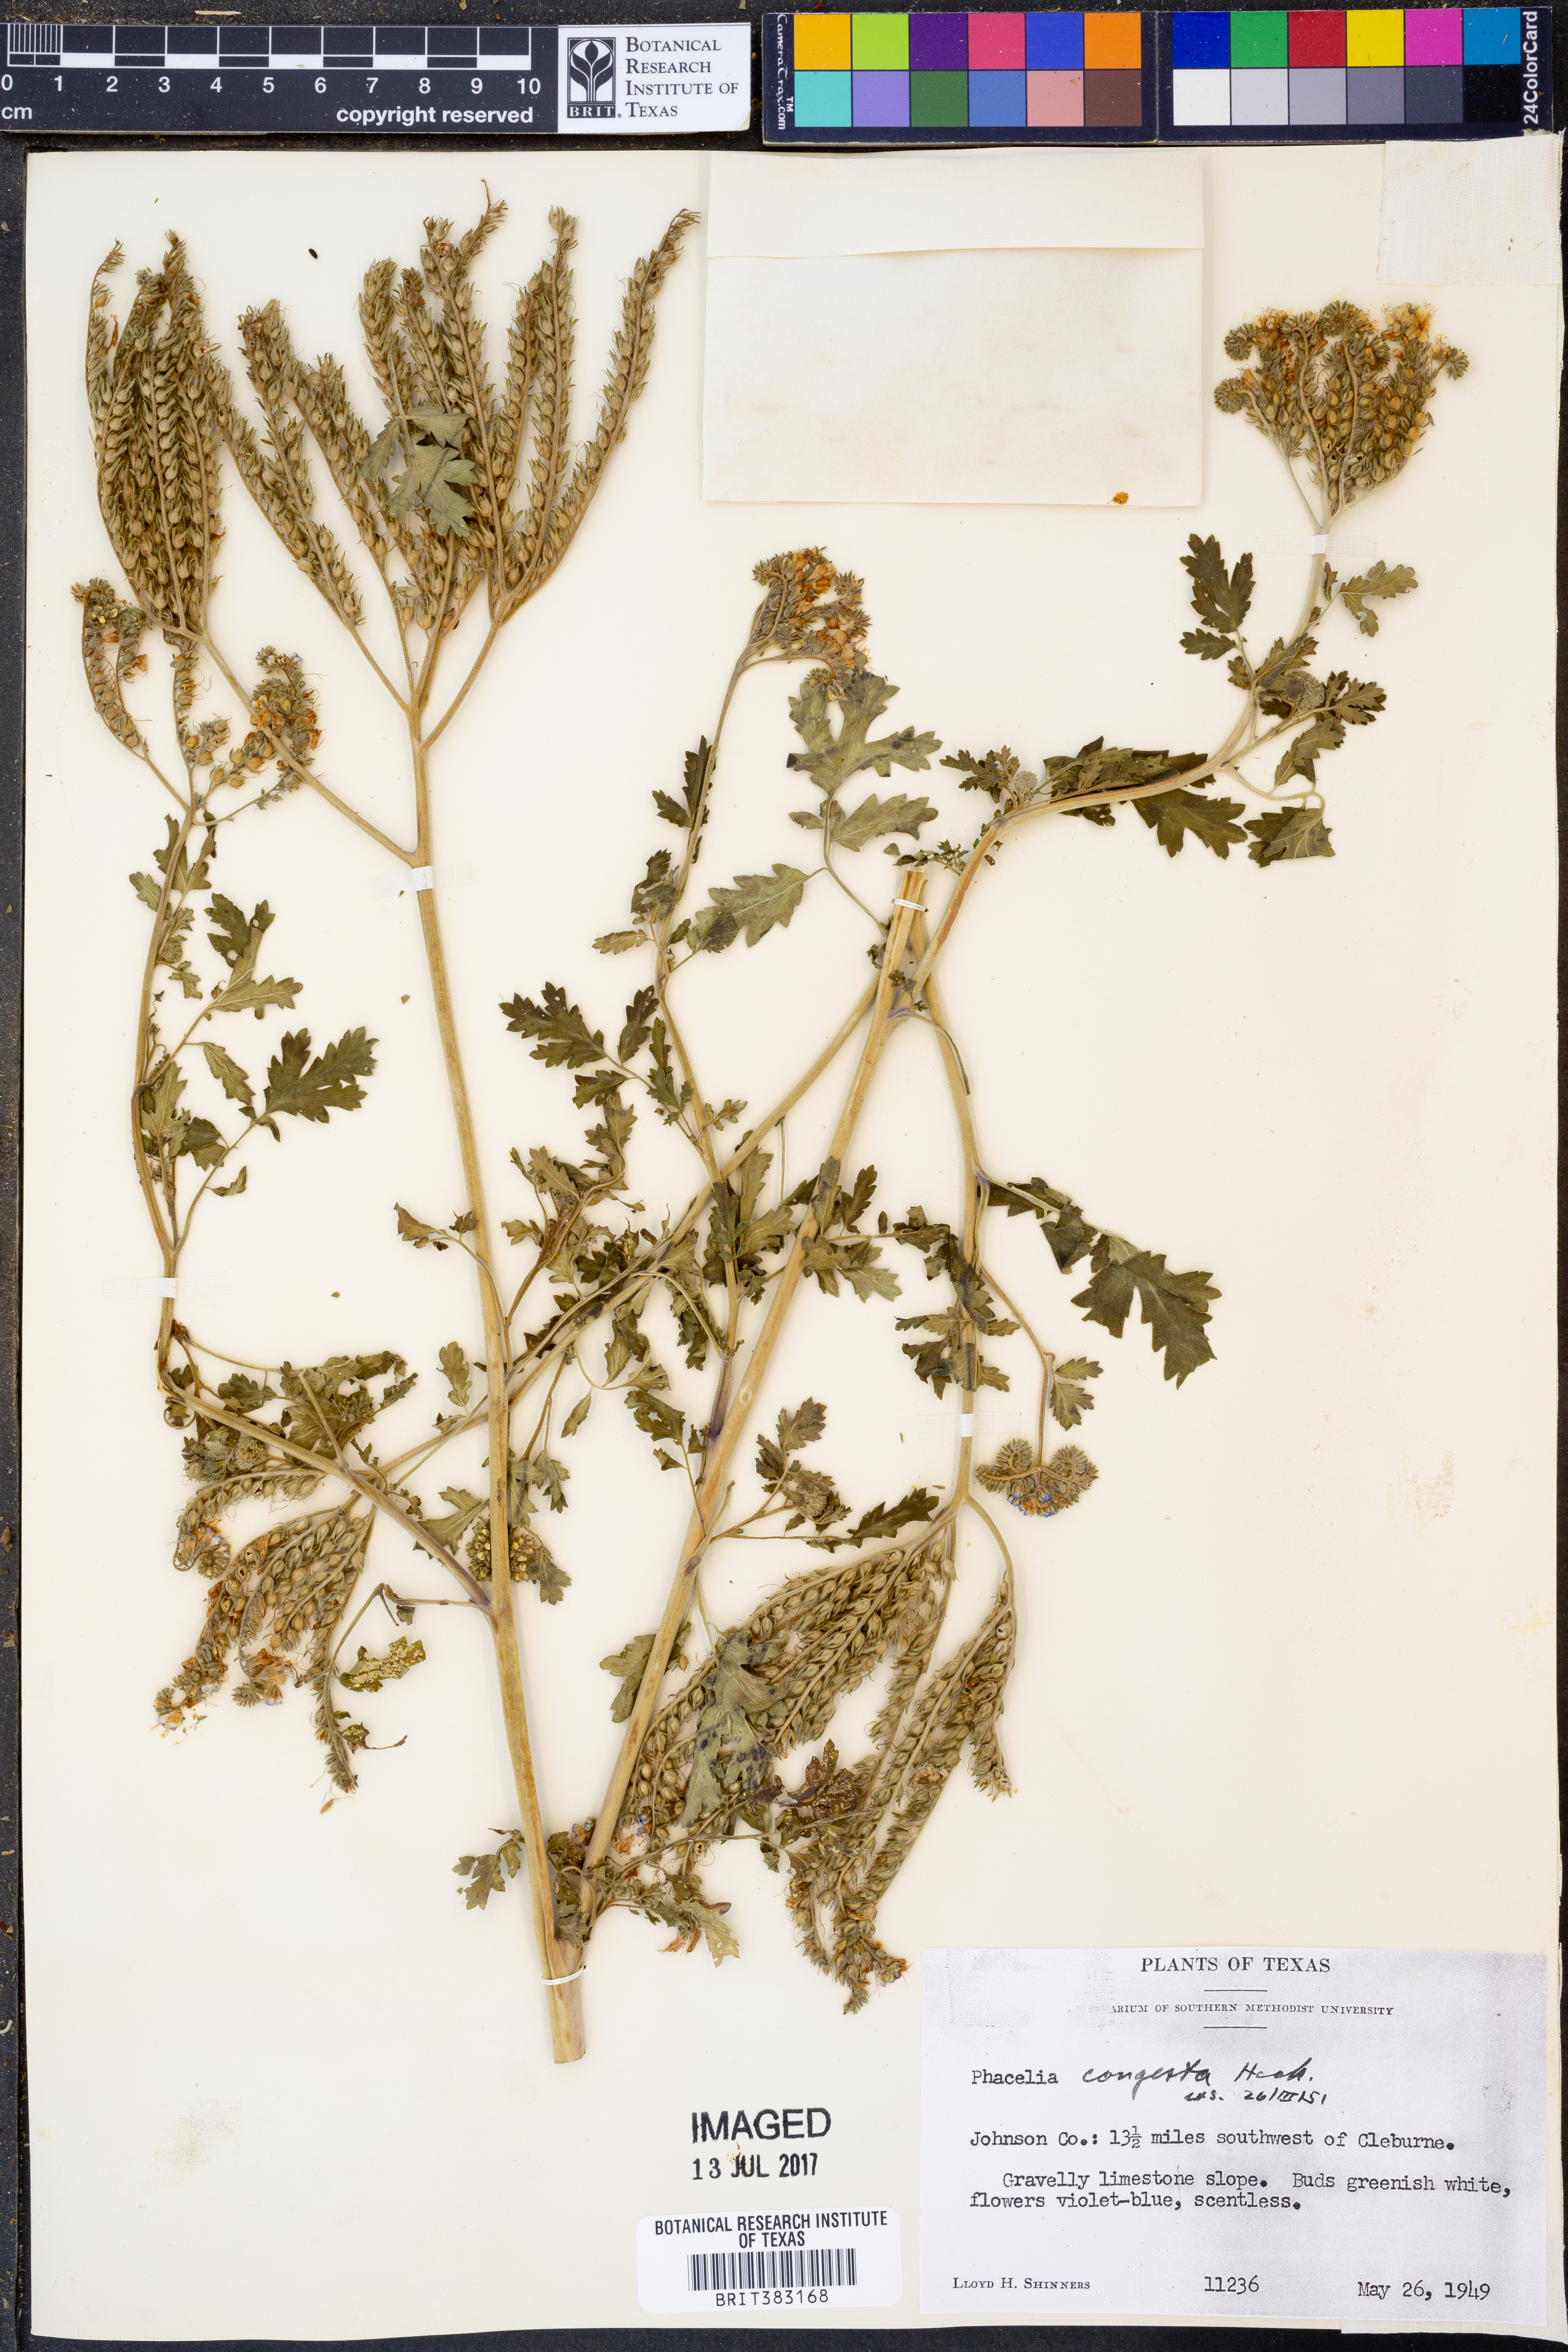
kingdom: Plantae
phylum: Tracheophyta
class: Magnoliopsida
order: Boraginales
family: Hydrophyllaceae
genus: Phacelia
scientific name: Phacelia congesta
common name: Blue curls
